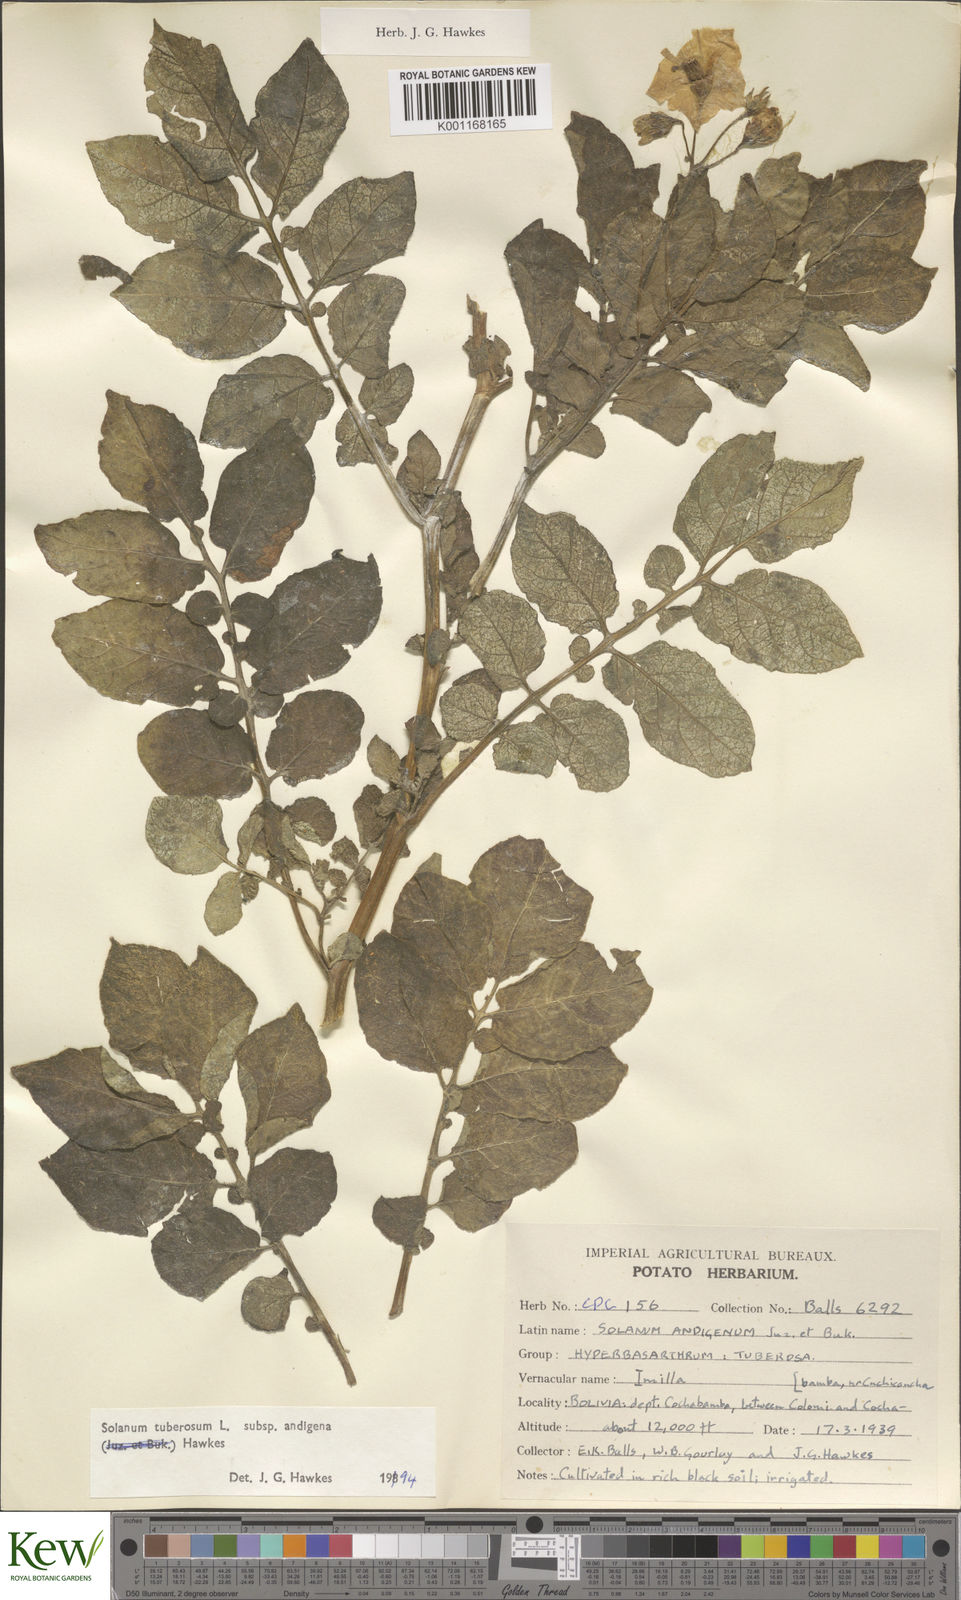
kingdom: Plantae
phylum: Tracheophyta
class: Magnoliopsida
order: Solanales
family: Solanaceae
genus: Solanum
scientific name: Solanum tuberosum
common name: Potato
